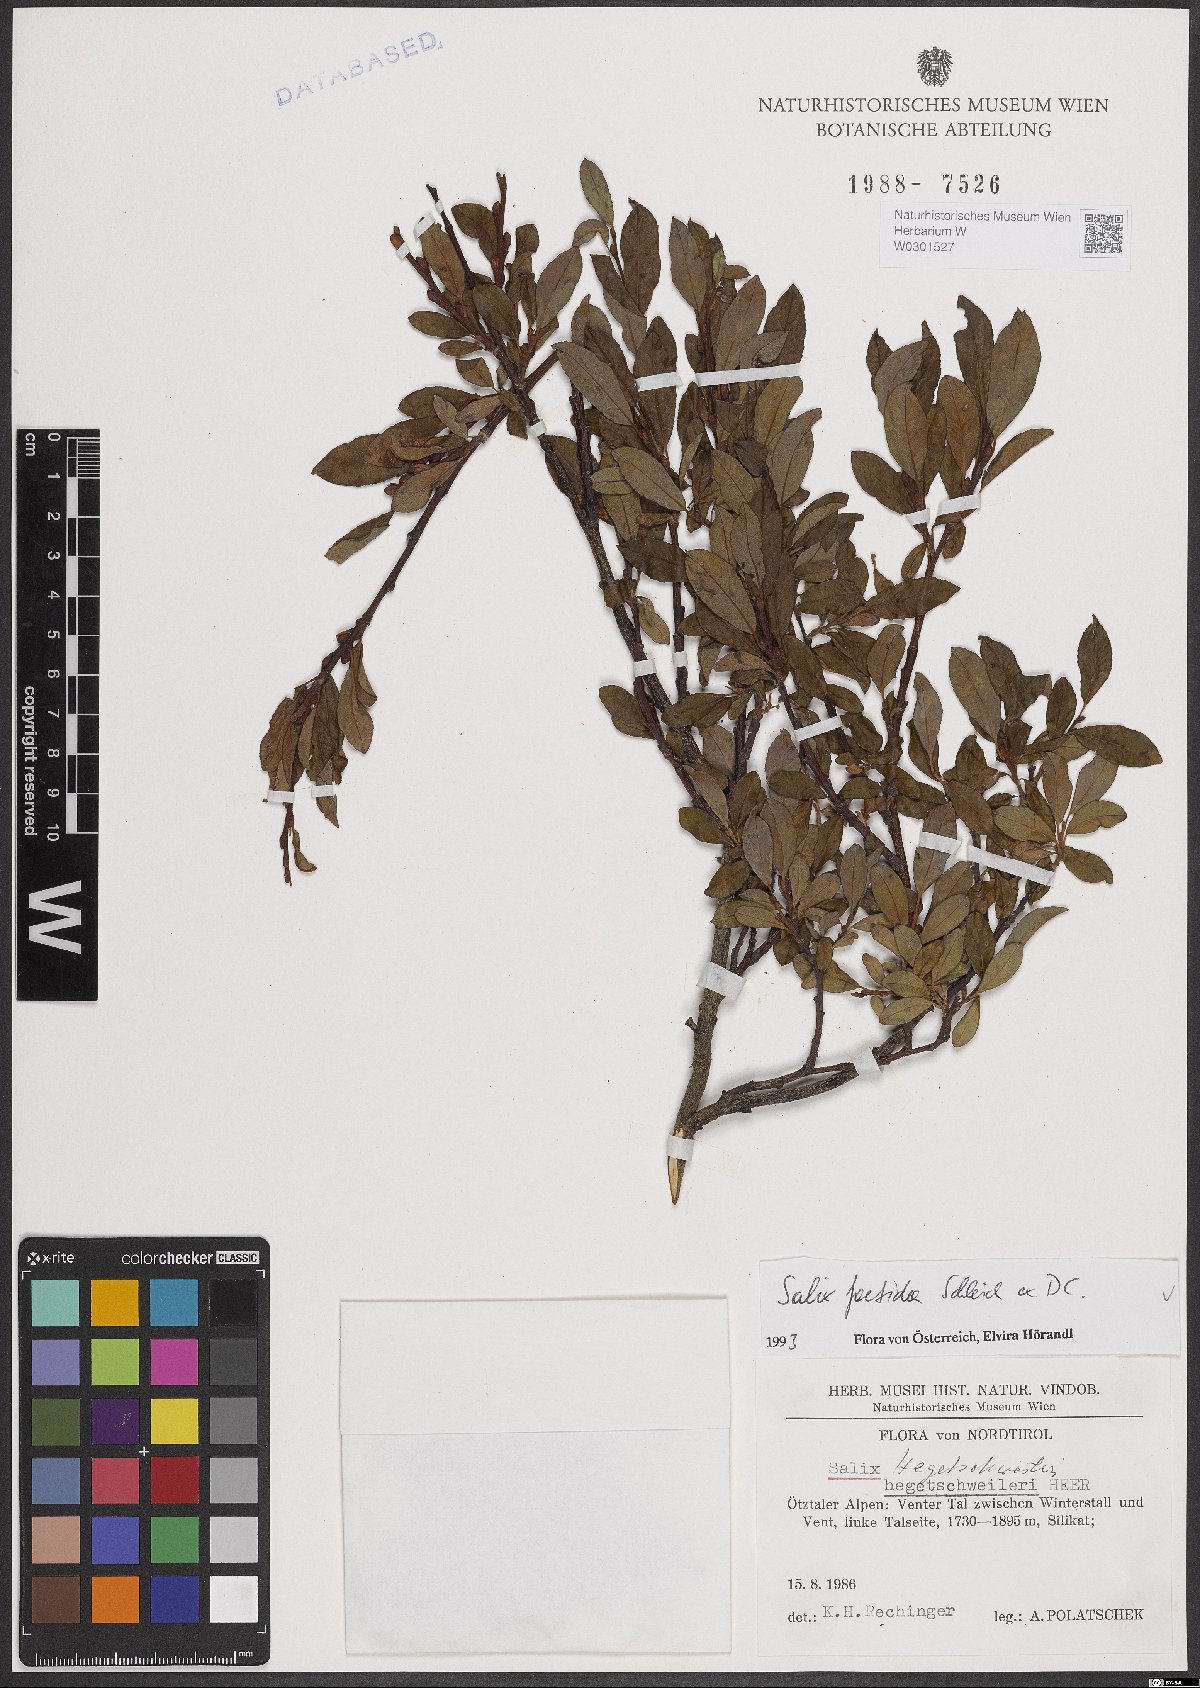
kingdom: Plantae
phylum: Tracheophyta
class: Magnoliopsida
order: Malpighiales
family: Salicaceae
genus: Salix
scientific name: Salix foetida
